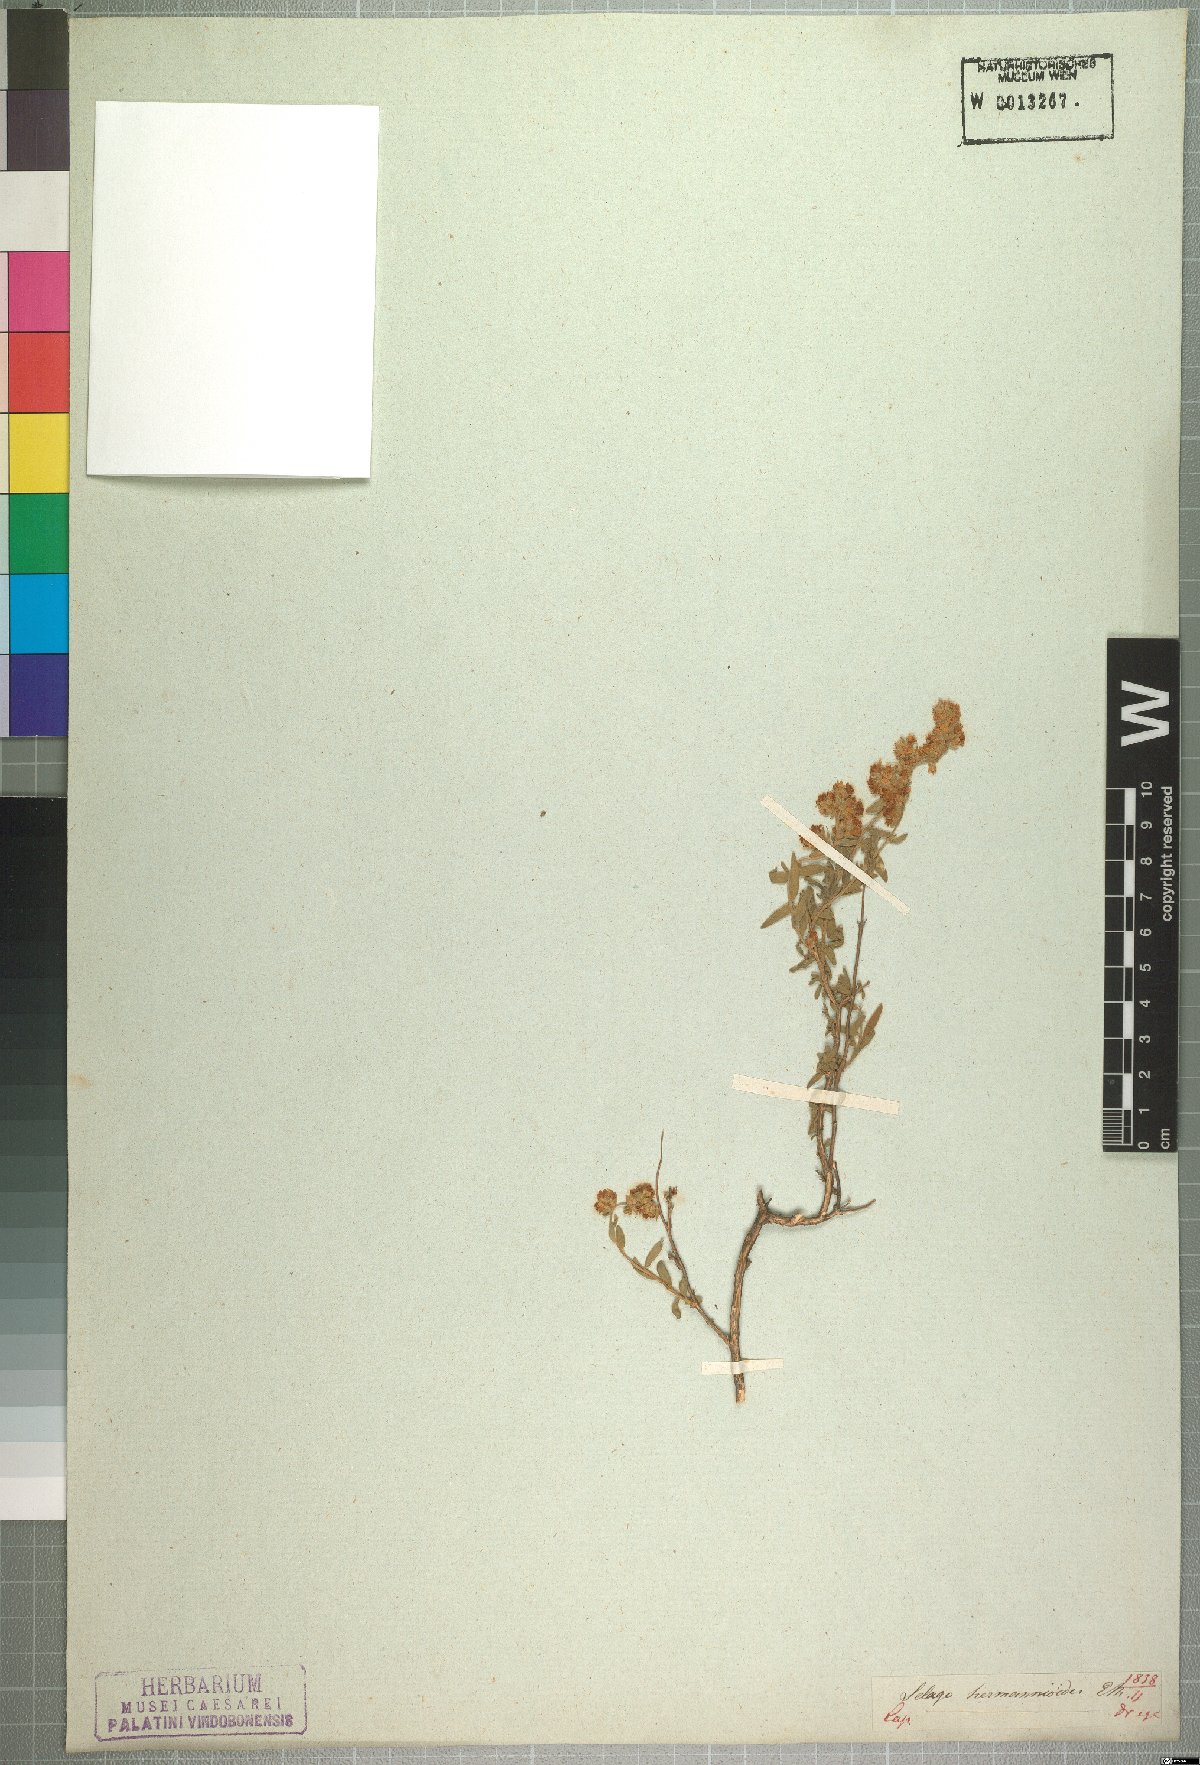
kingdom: Plantae
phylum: Tracheophyta
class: Magnoliopsida
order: Lamiales
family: Scrophulariaceae
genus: Selago
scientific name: Selago hermannioides
